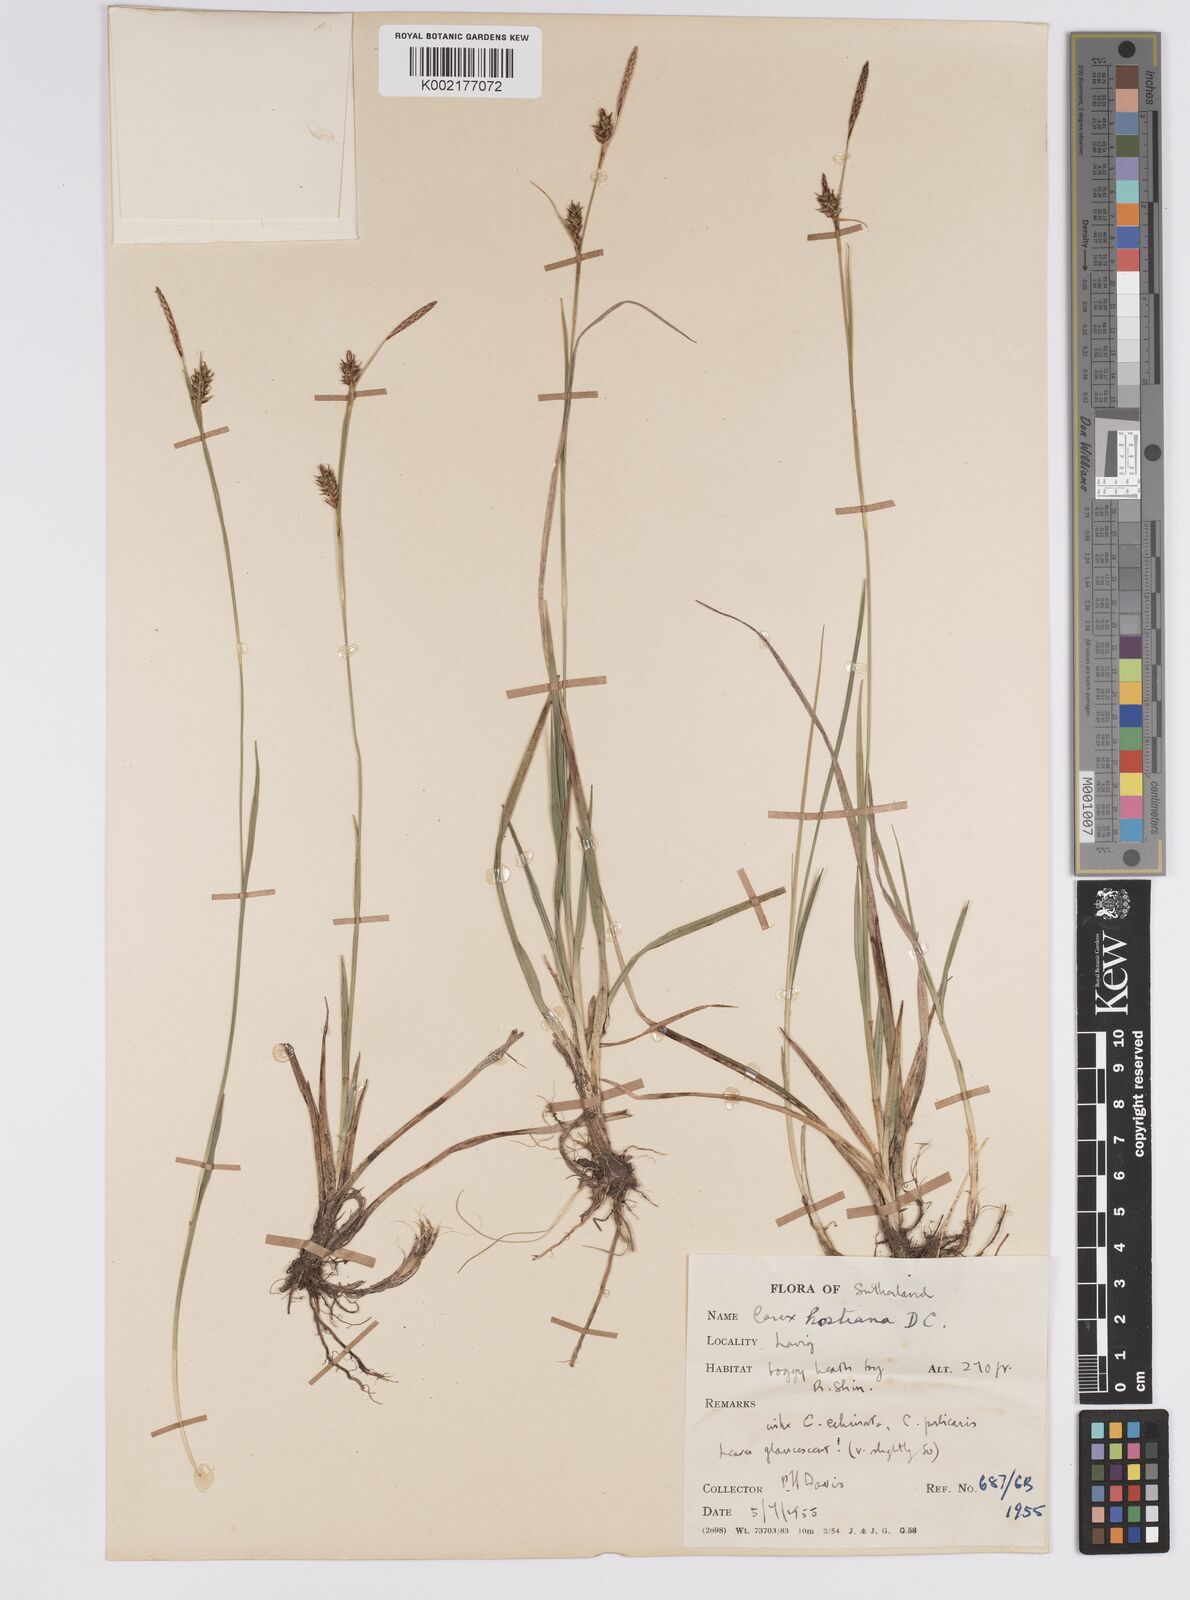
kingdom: Plantae
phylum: Tracheophyta
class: Liliopsida
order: Poales
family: Cyperaceae
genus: Carex
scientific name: Carex hostiana
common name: Tawny sedge
